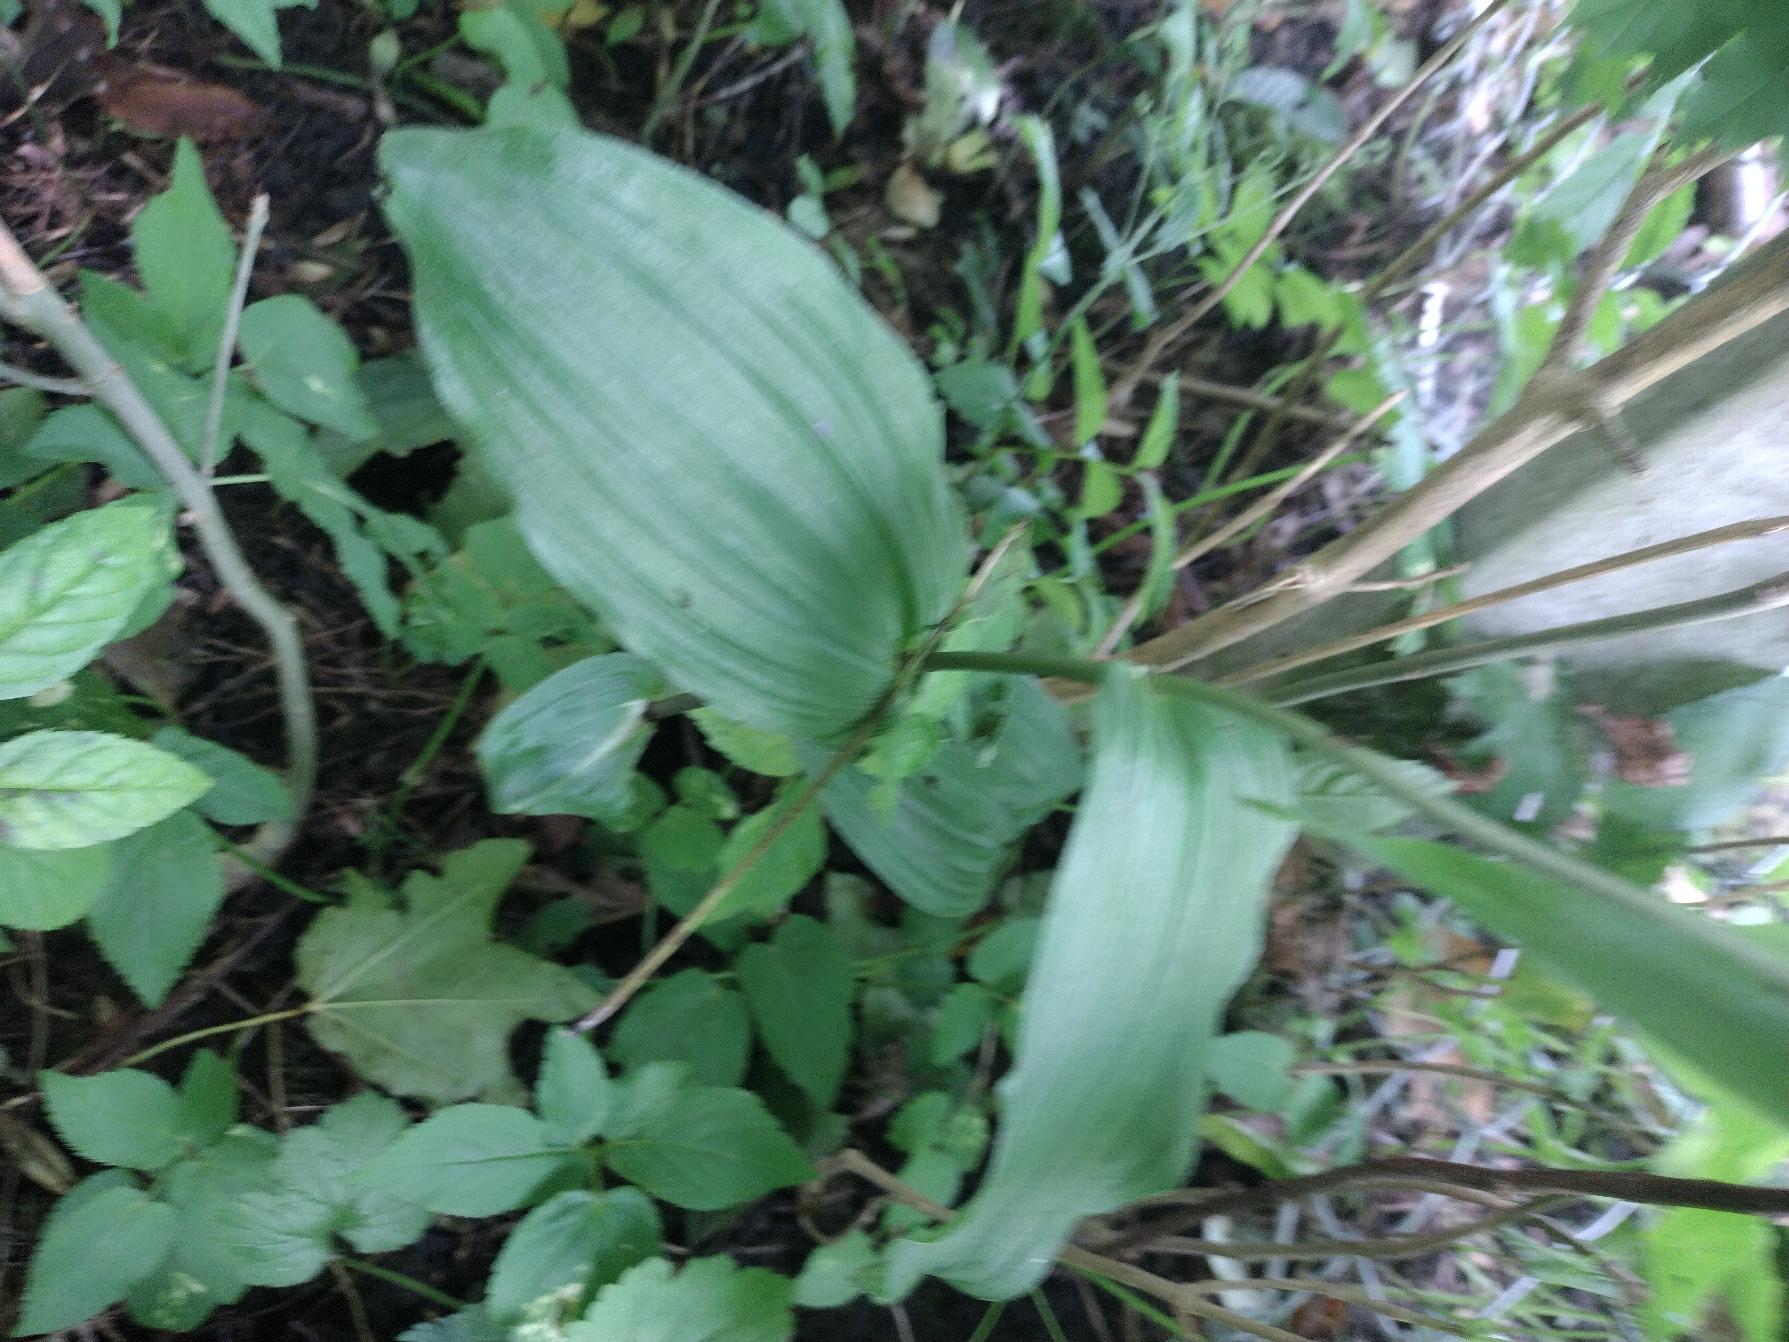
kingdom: Plantae
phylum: Tracheophyta
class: Liliopsida
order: Asparagales
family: Orchidaceae
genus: Epipactis
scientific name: Epipactis helleborine
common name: Skov-hullæbe
